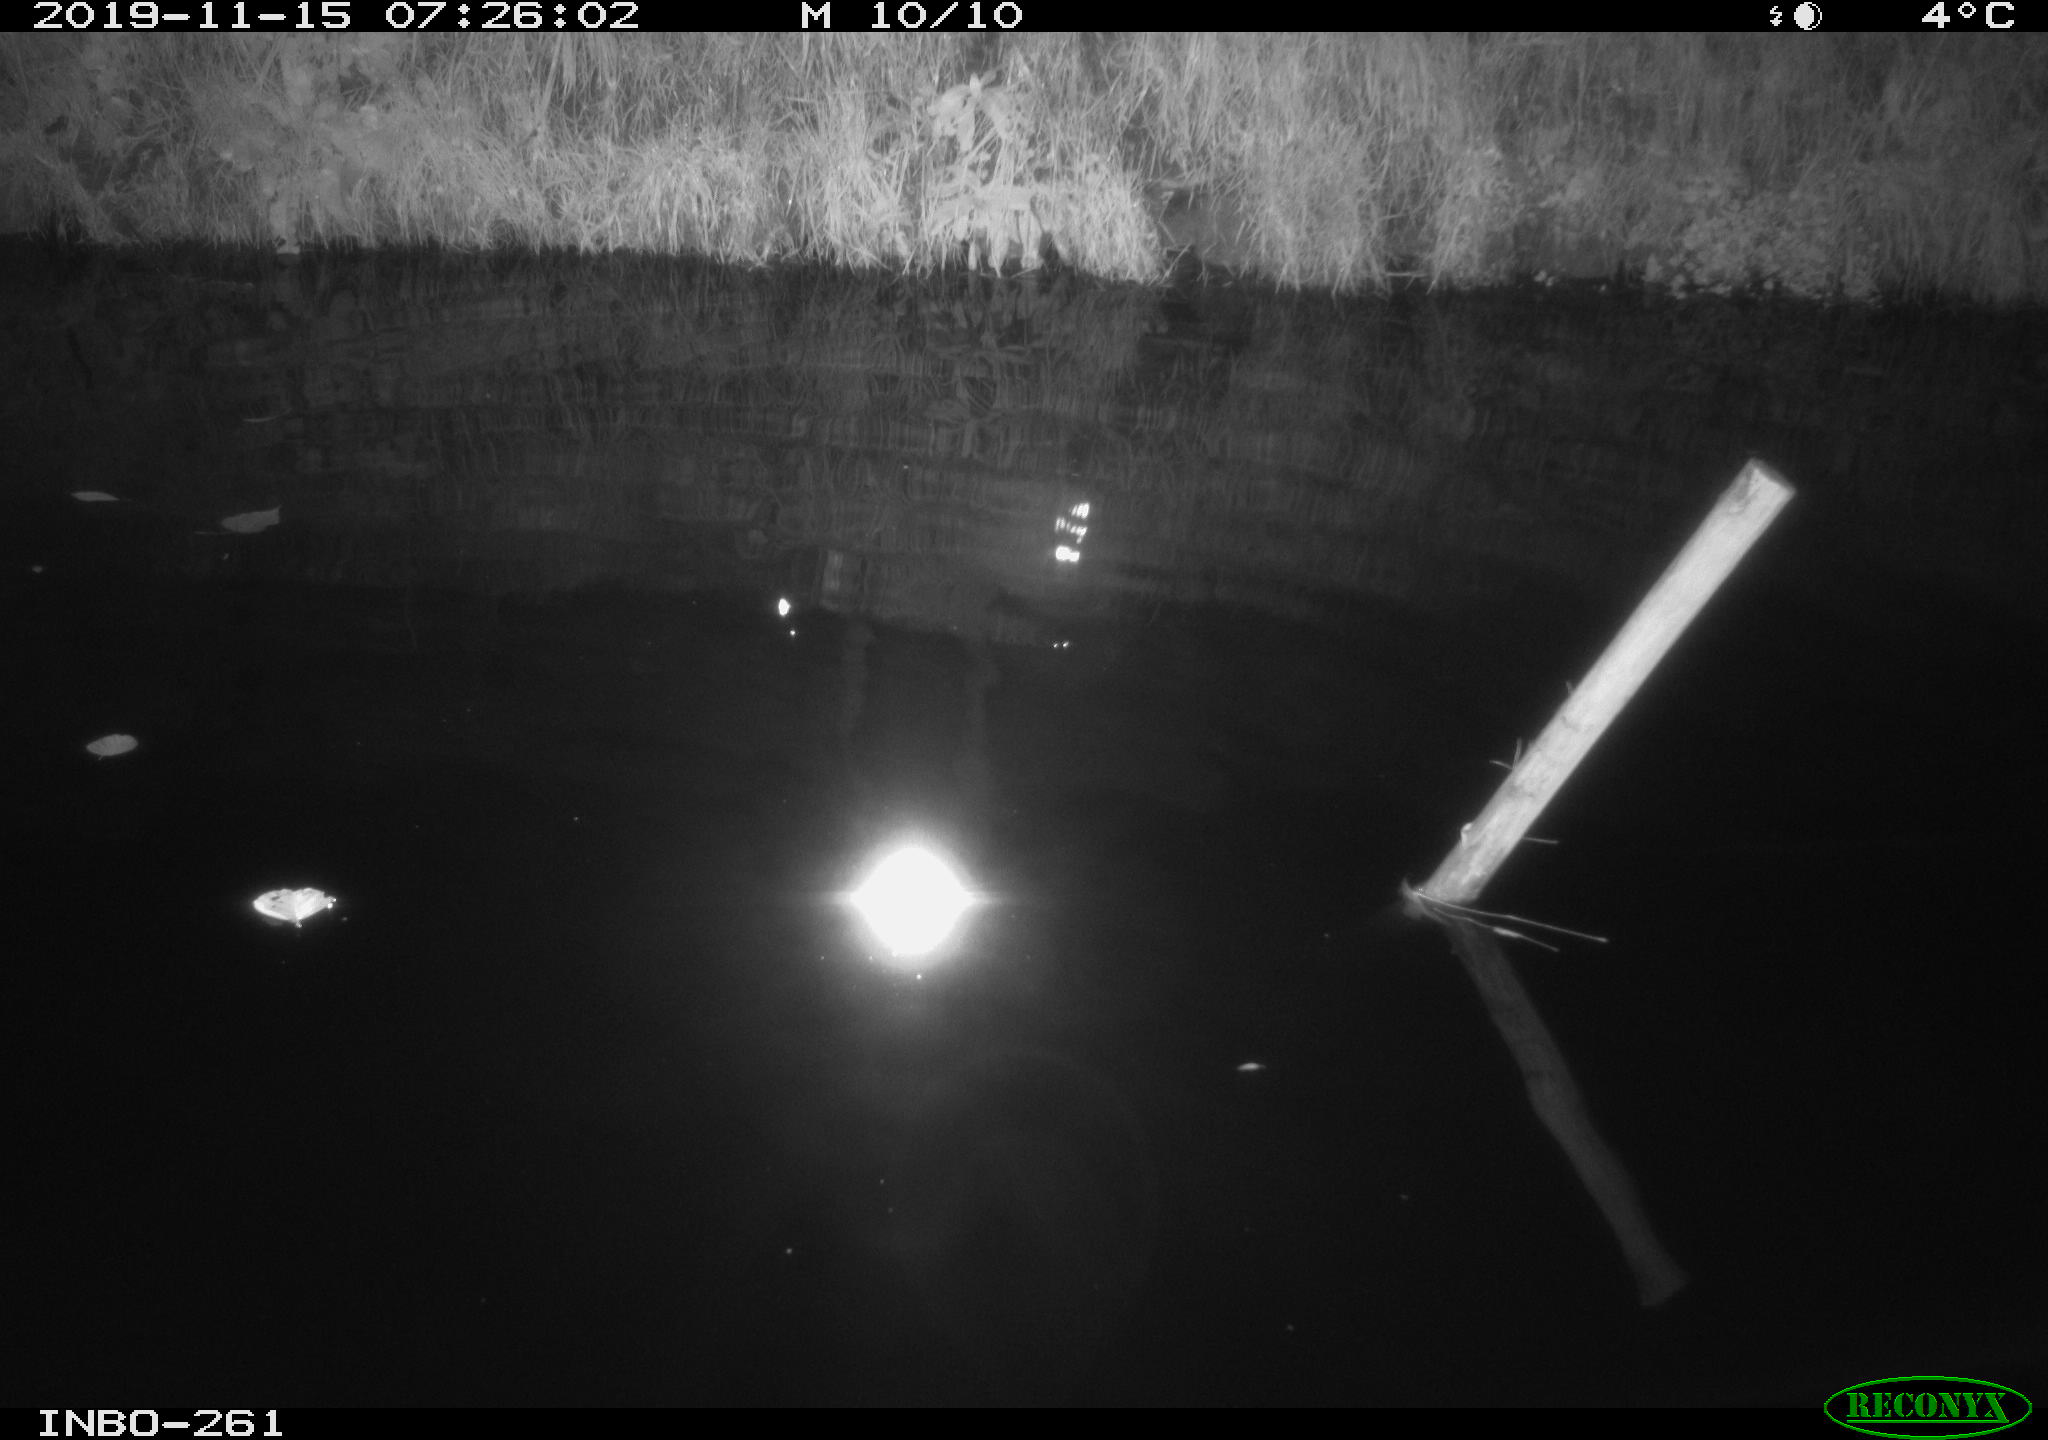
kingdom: Animalia
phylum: Chordata
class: Aves
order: Anseriformes
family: Anatidae
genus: Anas
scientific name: Anas platyrhynchos
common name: Mallard
